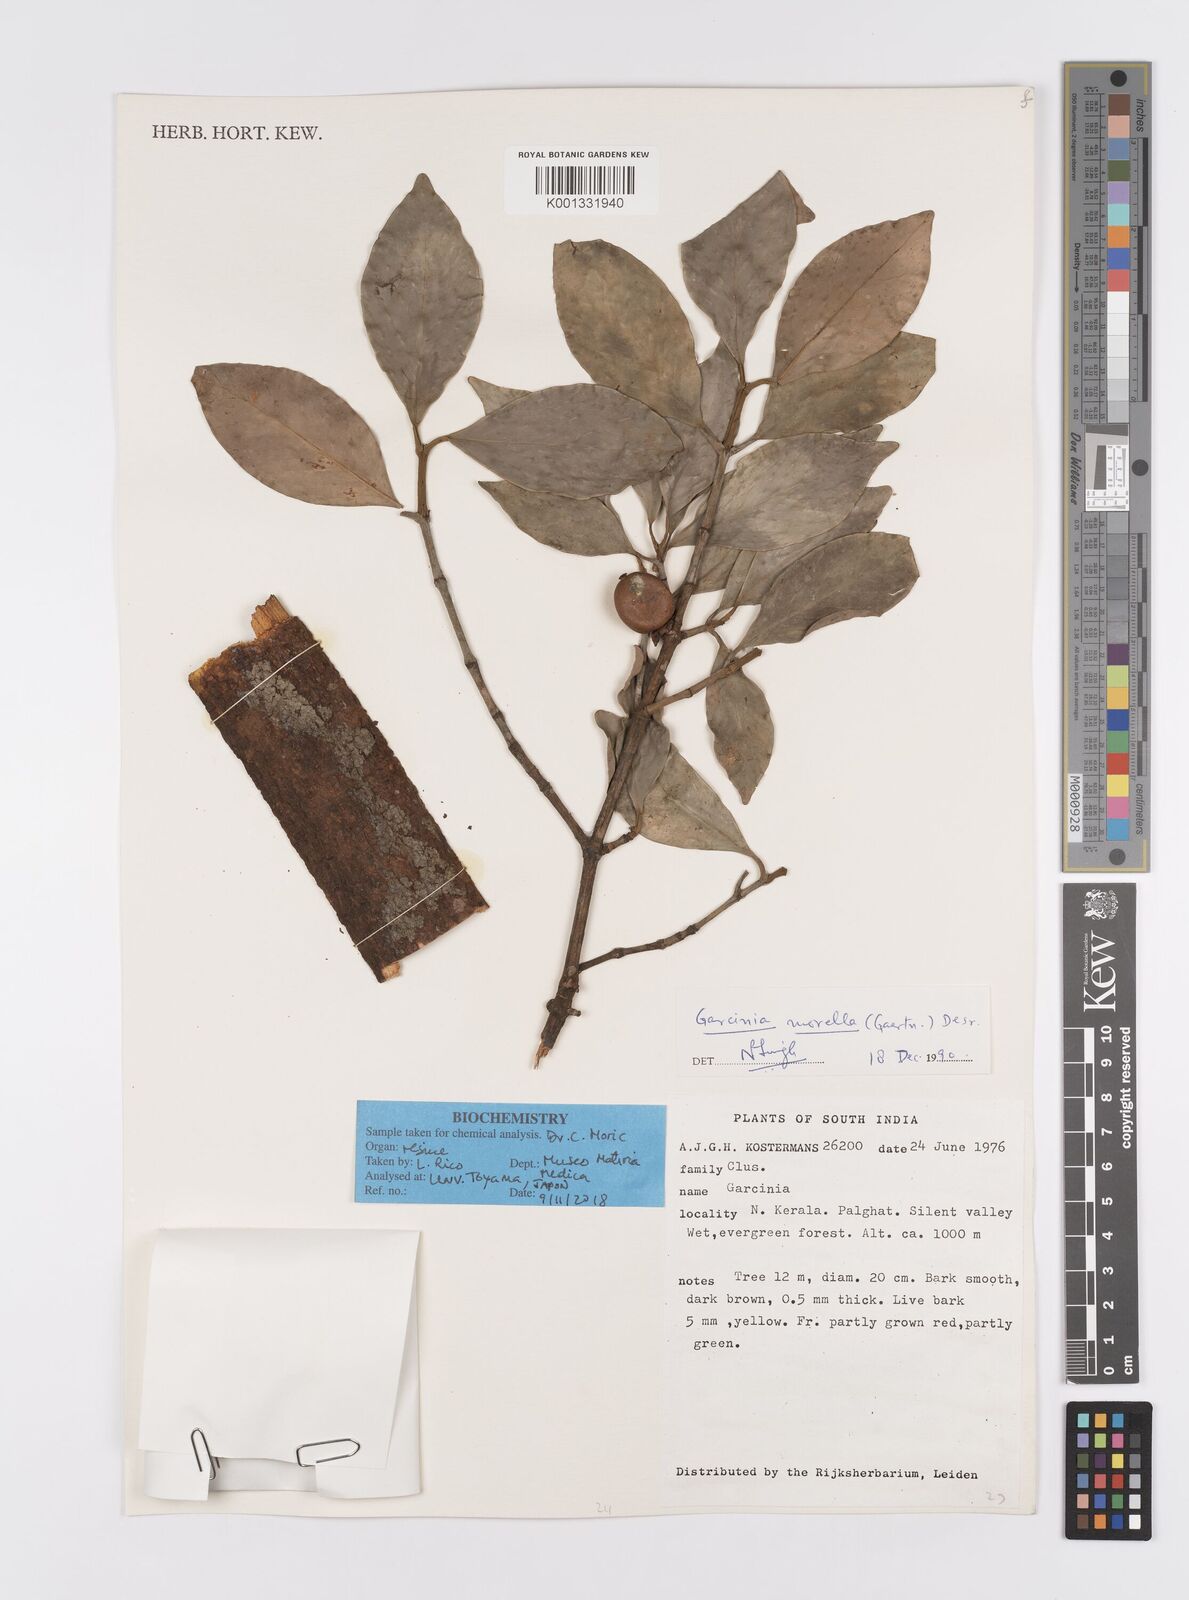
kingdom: Plantae
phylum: Tracheophyta
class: Magnoliopsida
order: Malpighiales
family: Clusiaceae
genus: Garcinia
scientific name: Garcinia morella
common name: Indian gamboge-tree
